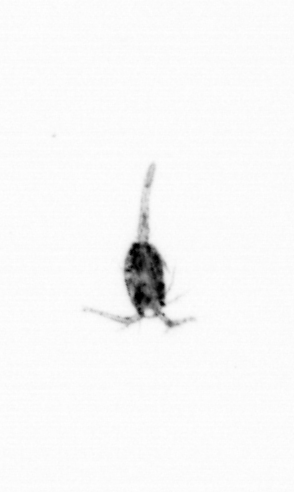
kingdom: Animalia
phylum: Arthropoda
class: Copepoda
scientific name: Copepoda
